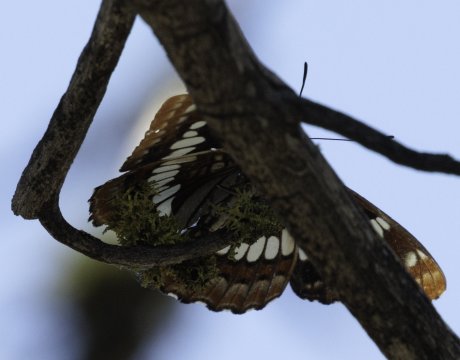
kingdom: Animalia
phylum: Arthropoda
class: Insecta
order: Lepidoptera
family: Nymphalidae
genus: Limenitis
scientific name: Limenitis lorquini
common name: Lorquin's Admiral
